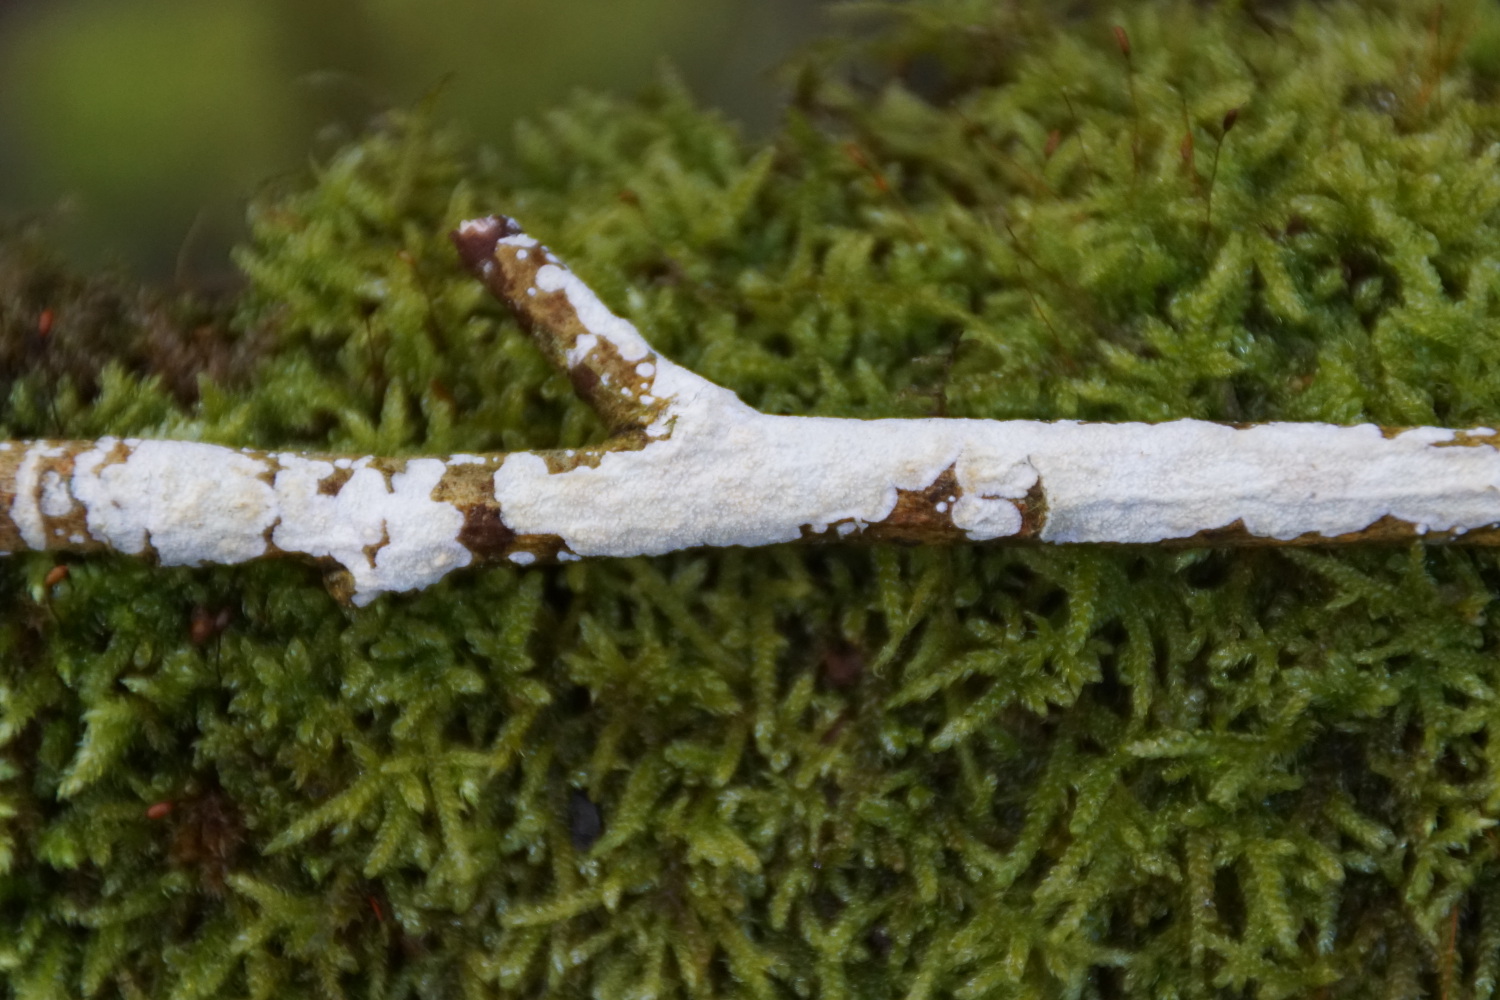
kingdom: Fungi
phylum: Basidiomycota
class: Agaricomycetes
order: Corticiales
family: Corticiaceae
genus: Lyomyces
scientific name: Lyomyces crustosus
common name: vortet hyldehinde
